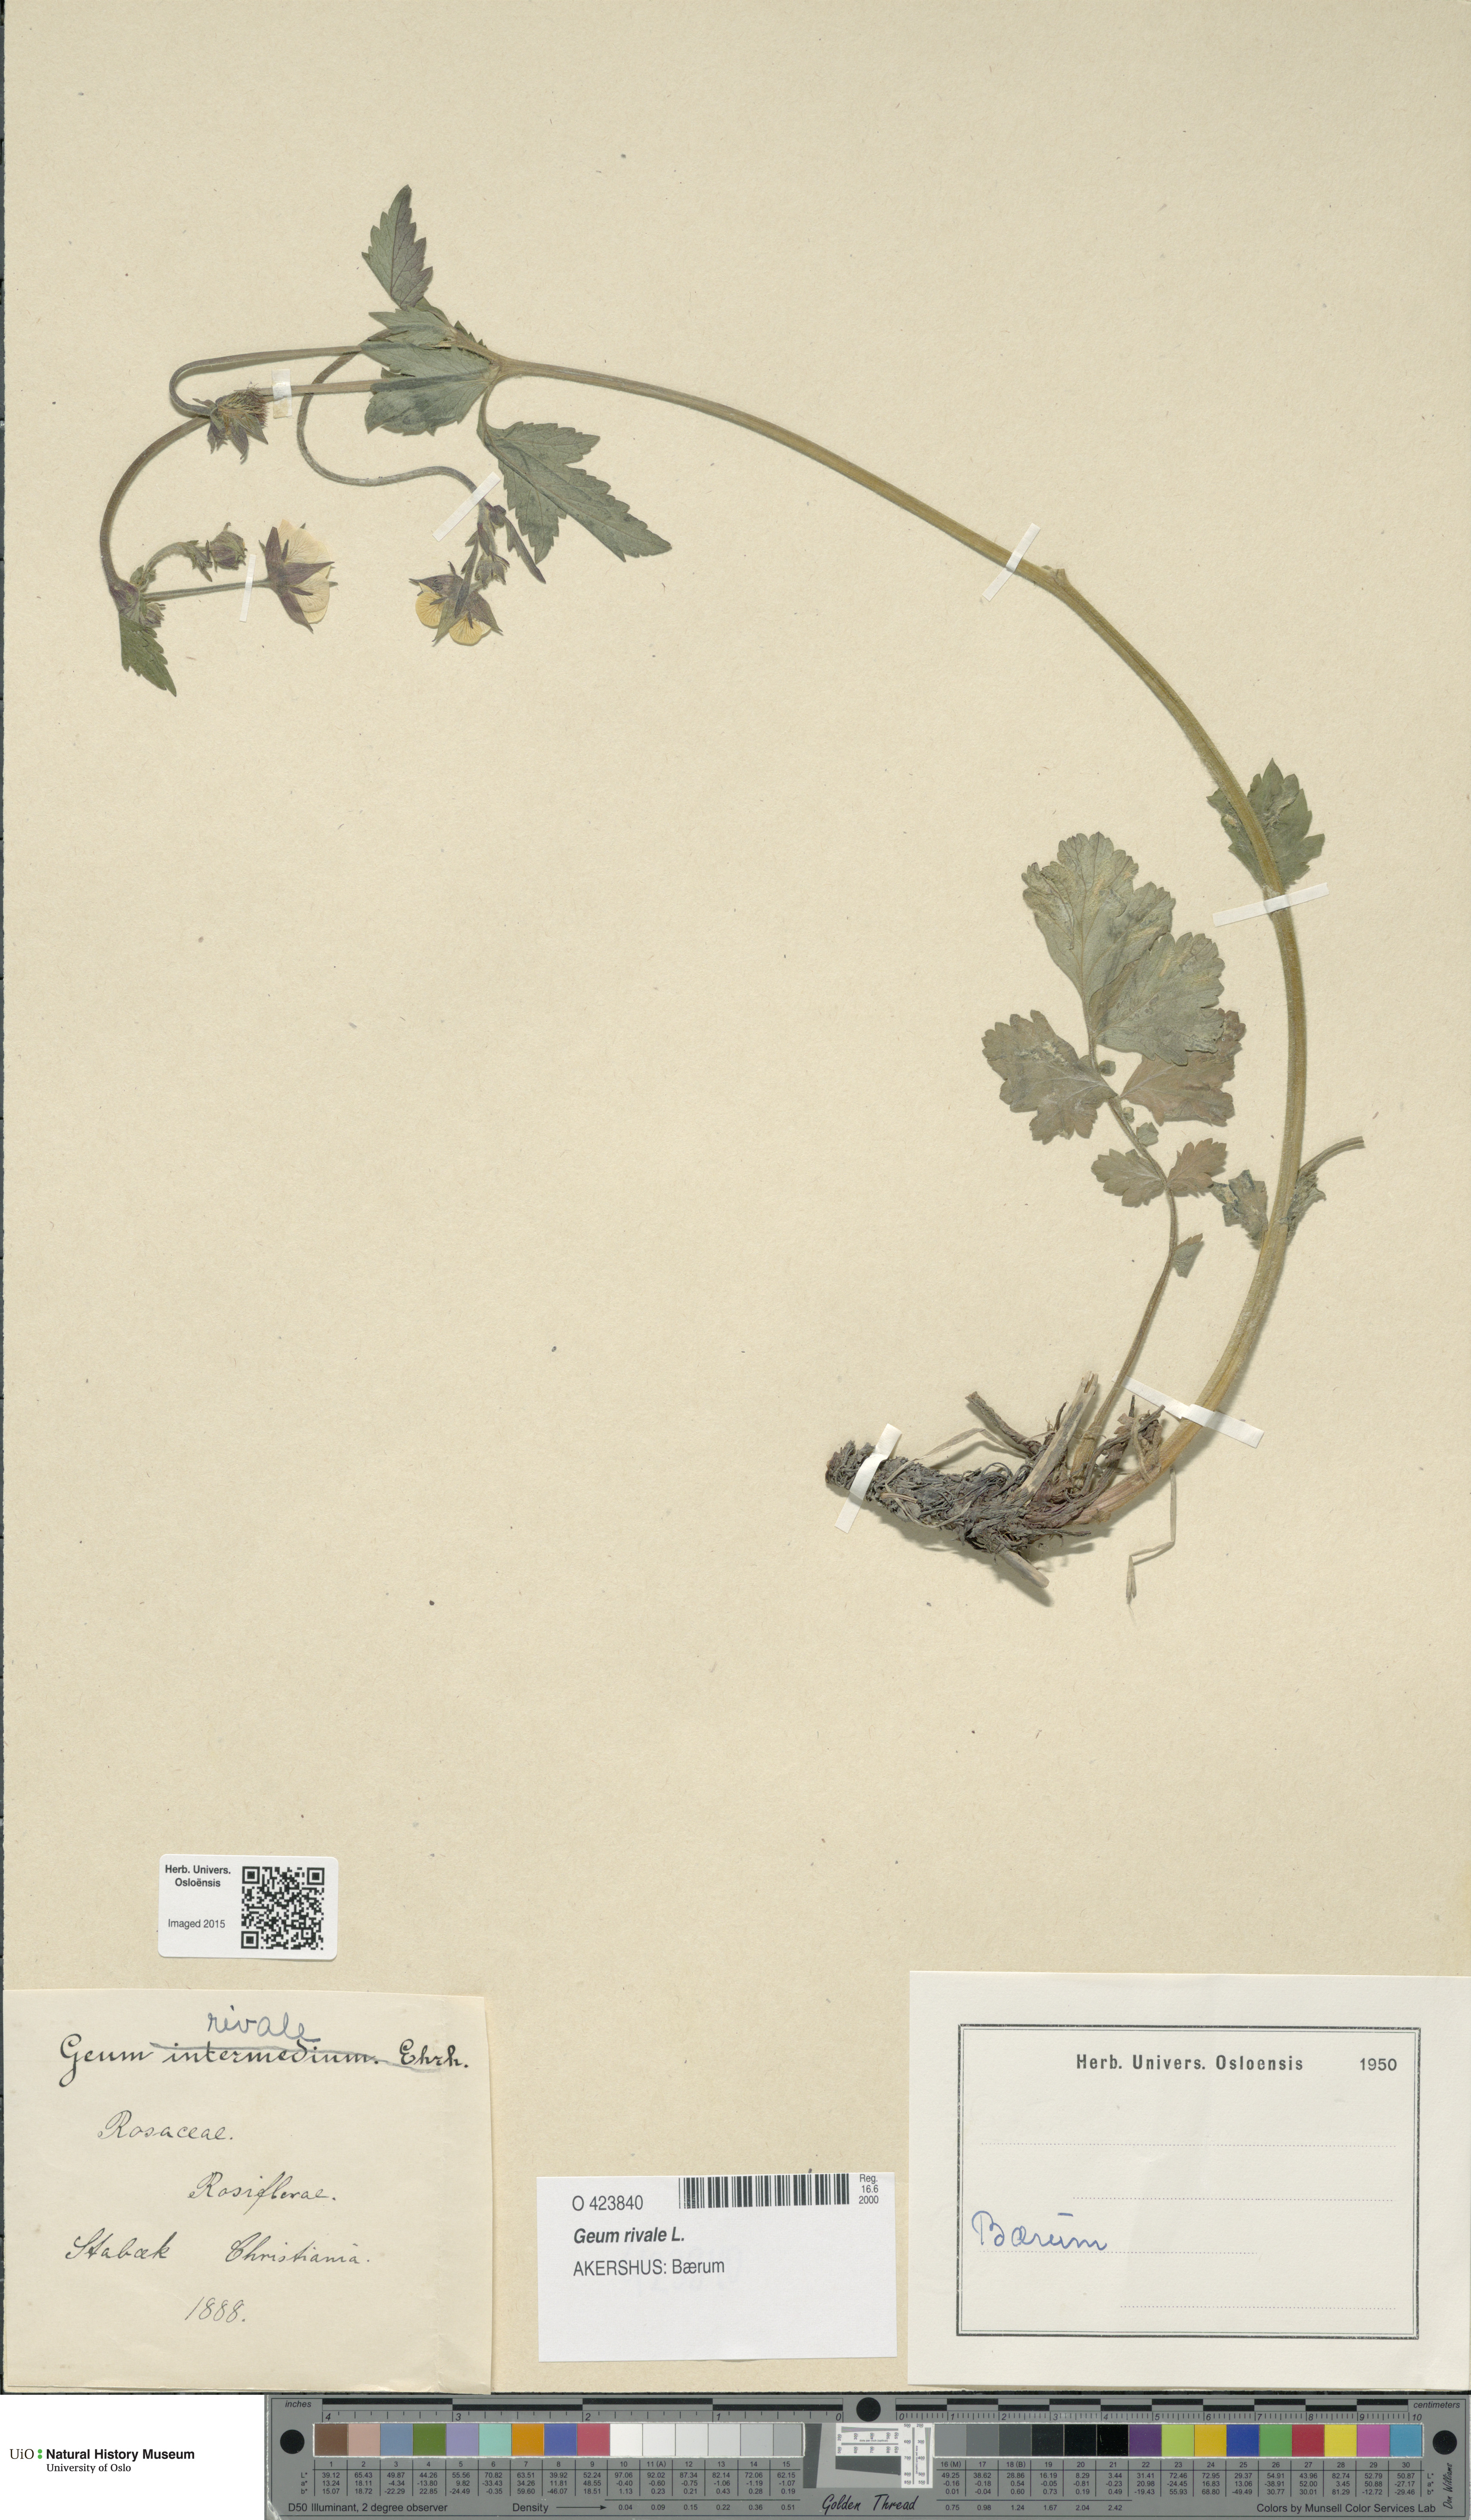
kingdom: Plantae
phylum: Tracheophyta
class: Magnoliopsida
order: Rosales
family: Rosaceae
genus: Geum
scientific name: Geum rivale
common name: Water avens
